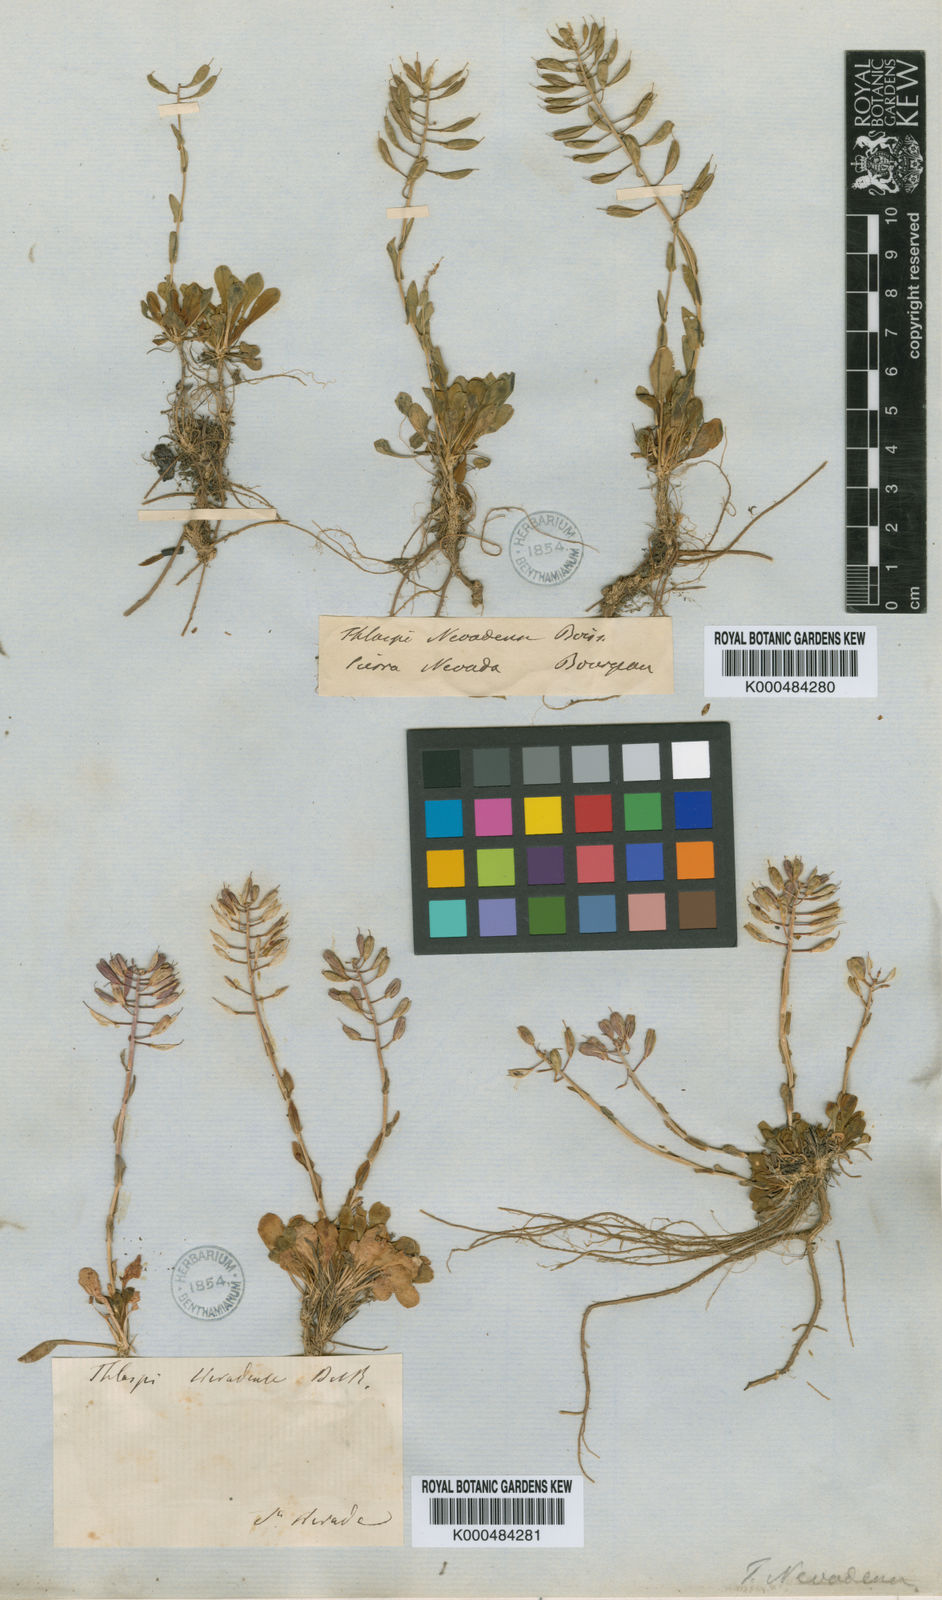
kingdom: Plantae
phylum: Tracheophyta
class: Magnoliopsida
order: Brassicales
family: Brassicaceae
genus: Noccaea
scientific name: Noccaea nevadensis
